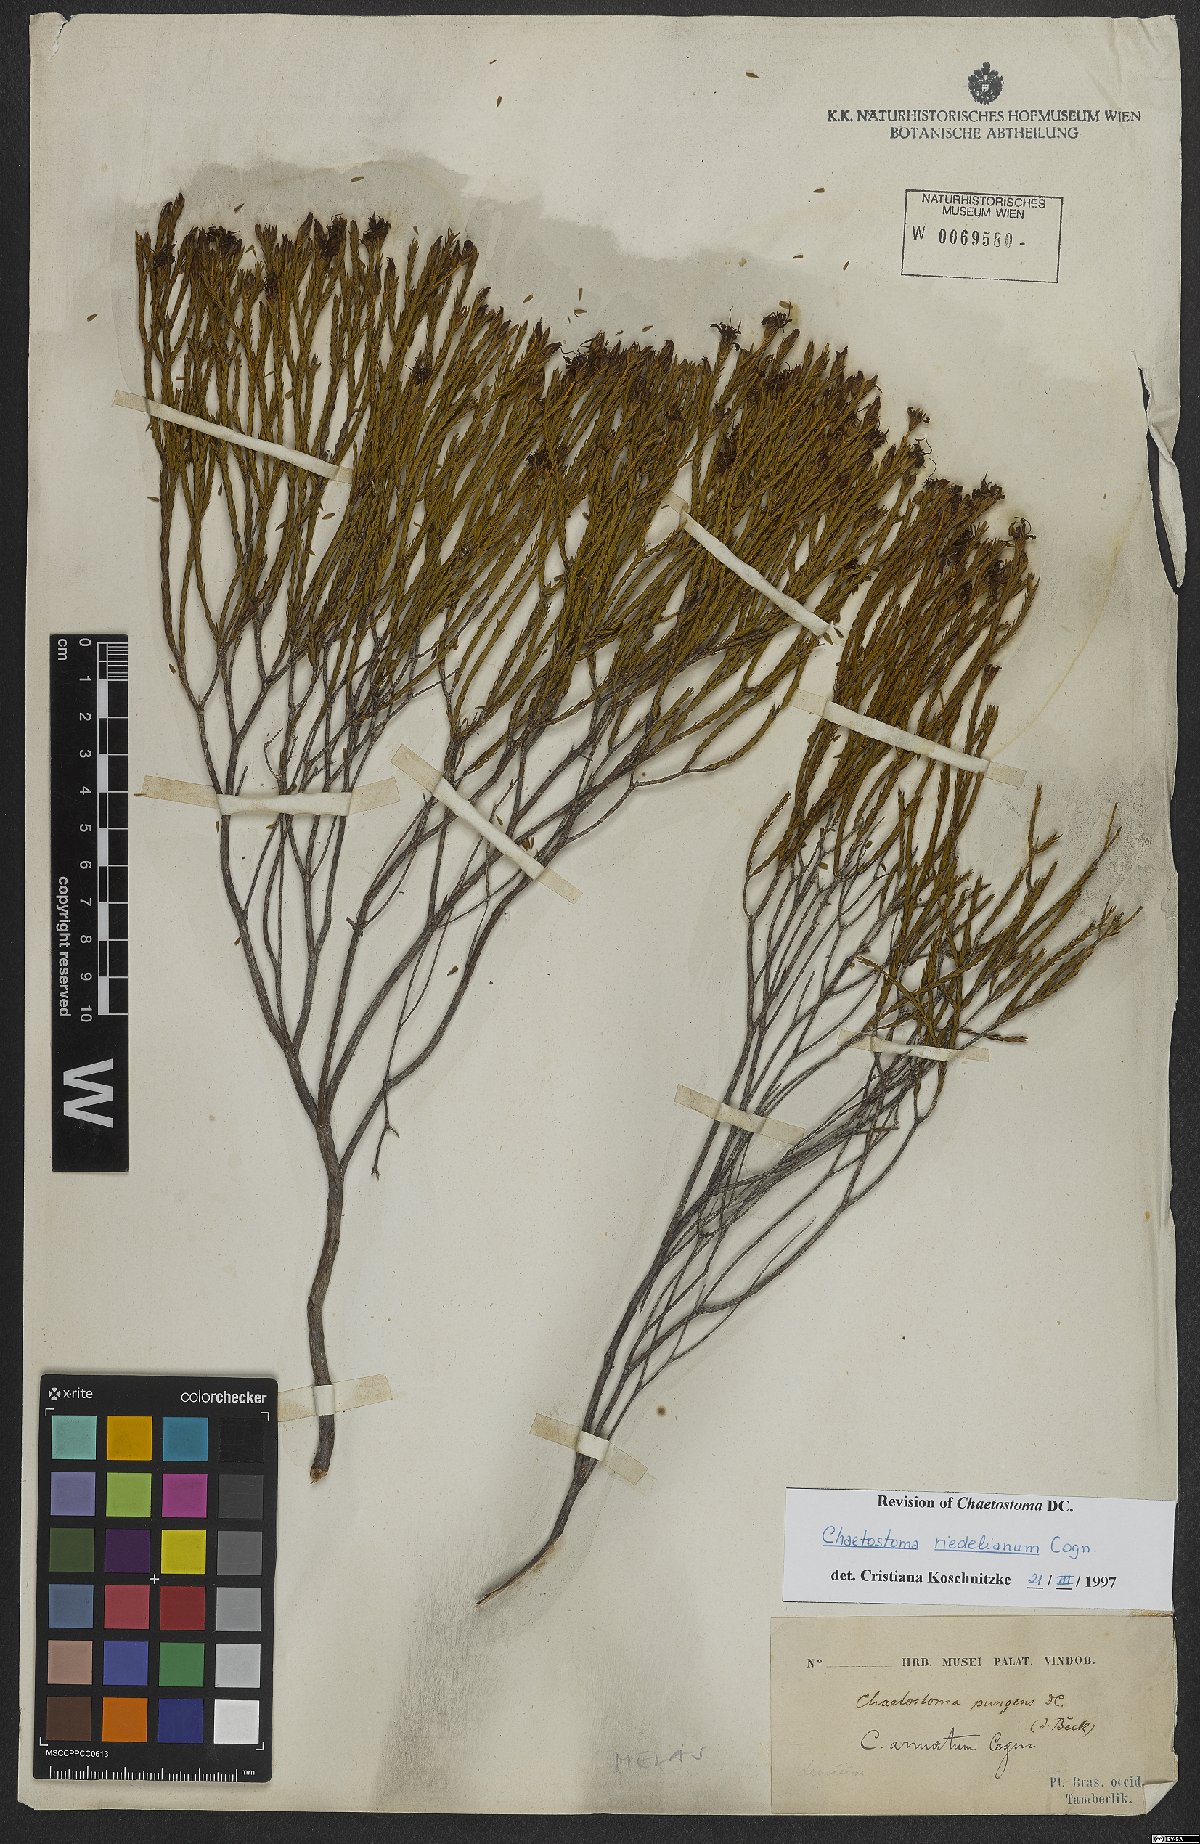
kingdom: Plantae
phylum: Tracheophyta
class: Magnoliopsida
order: Myrtales
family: Melastomataceae
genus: Microlicia
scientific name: Microlicia matogrossensis
